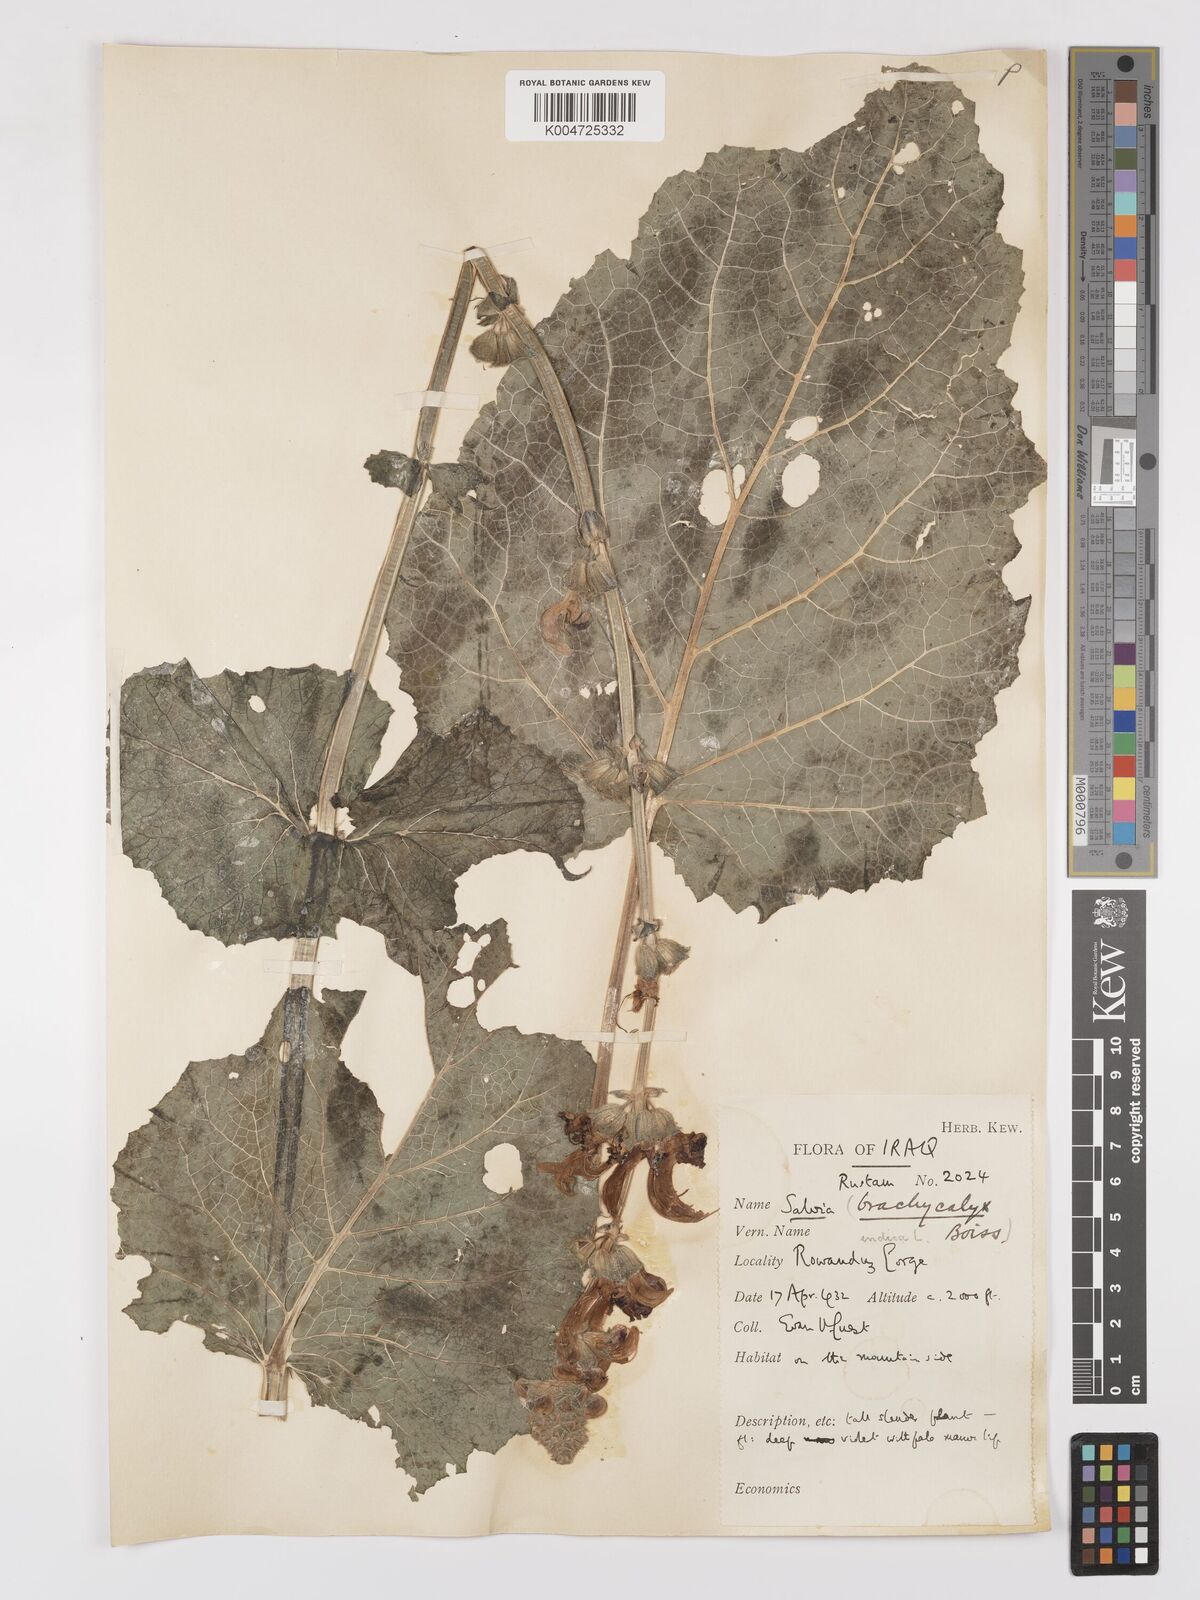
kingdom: Plantae
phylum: Tracheophyta
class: Magnoliopsida
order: Lamiales
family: Lamiaceae
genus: Salvia
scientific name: Salvia indica
